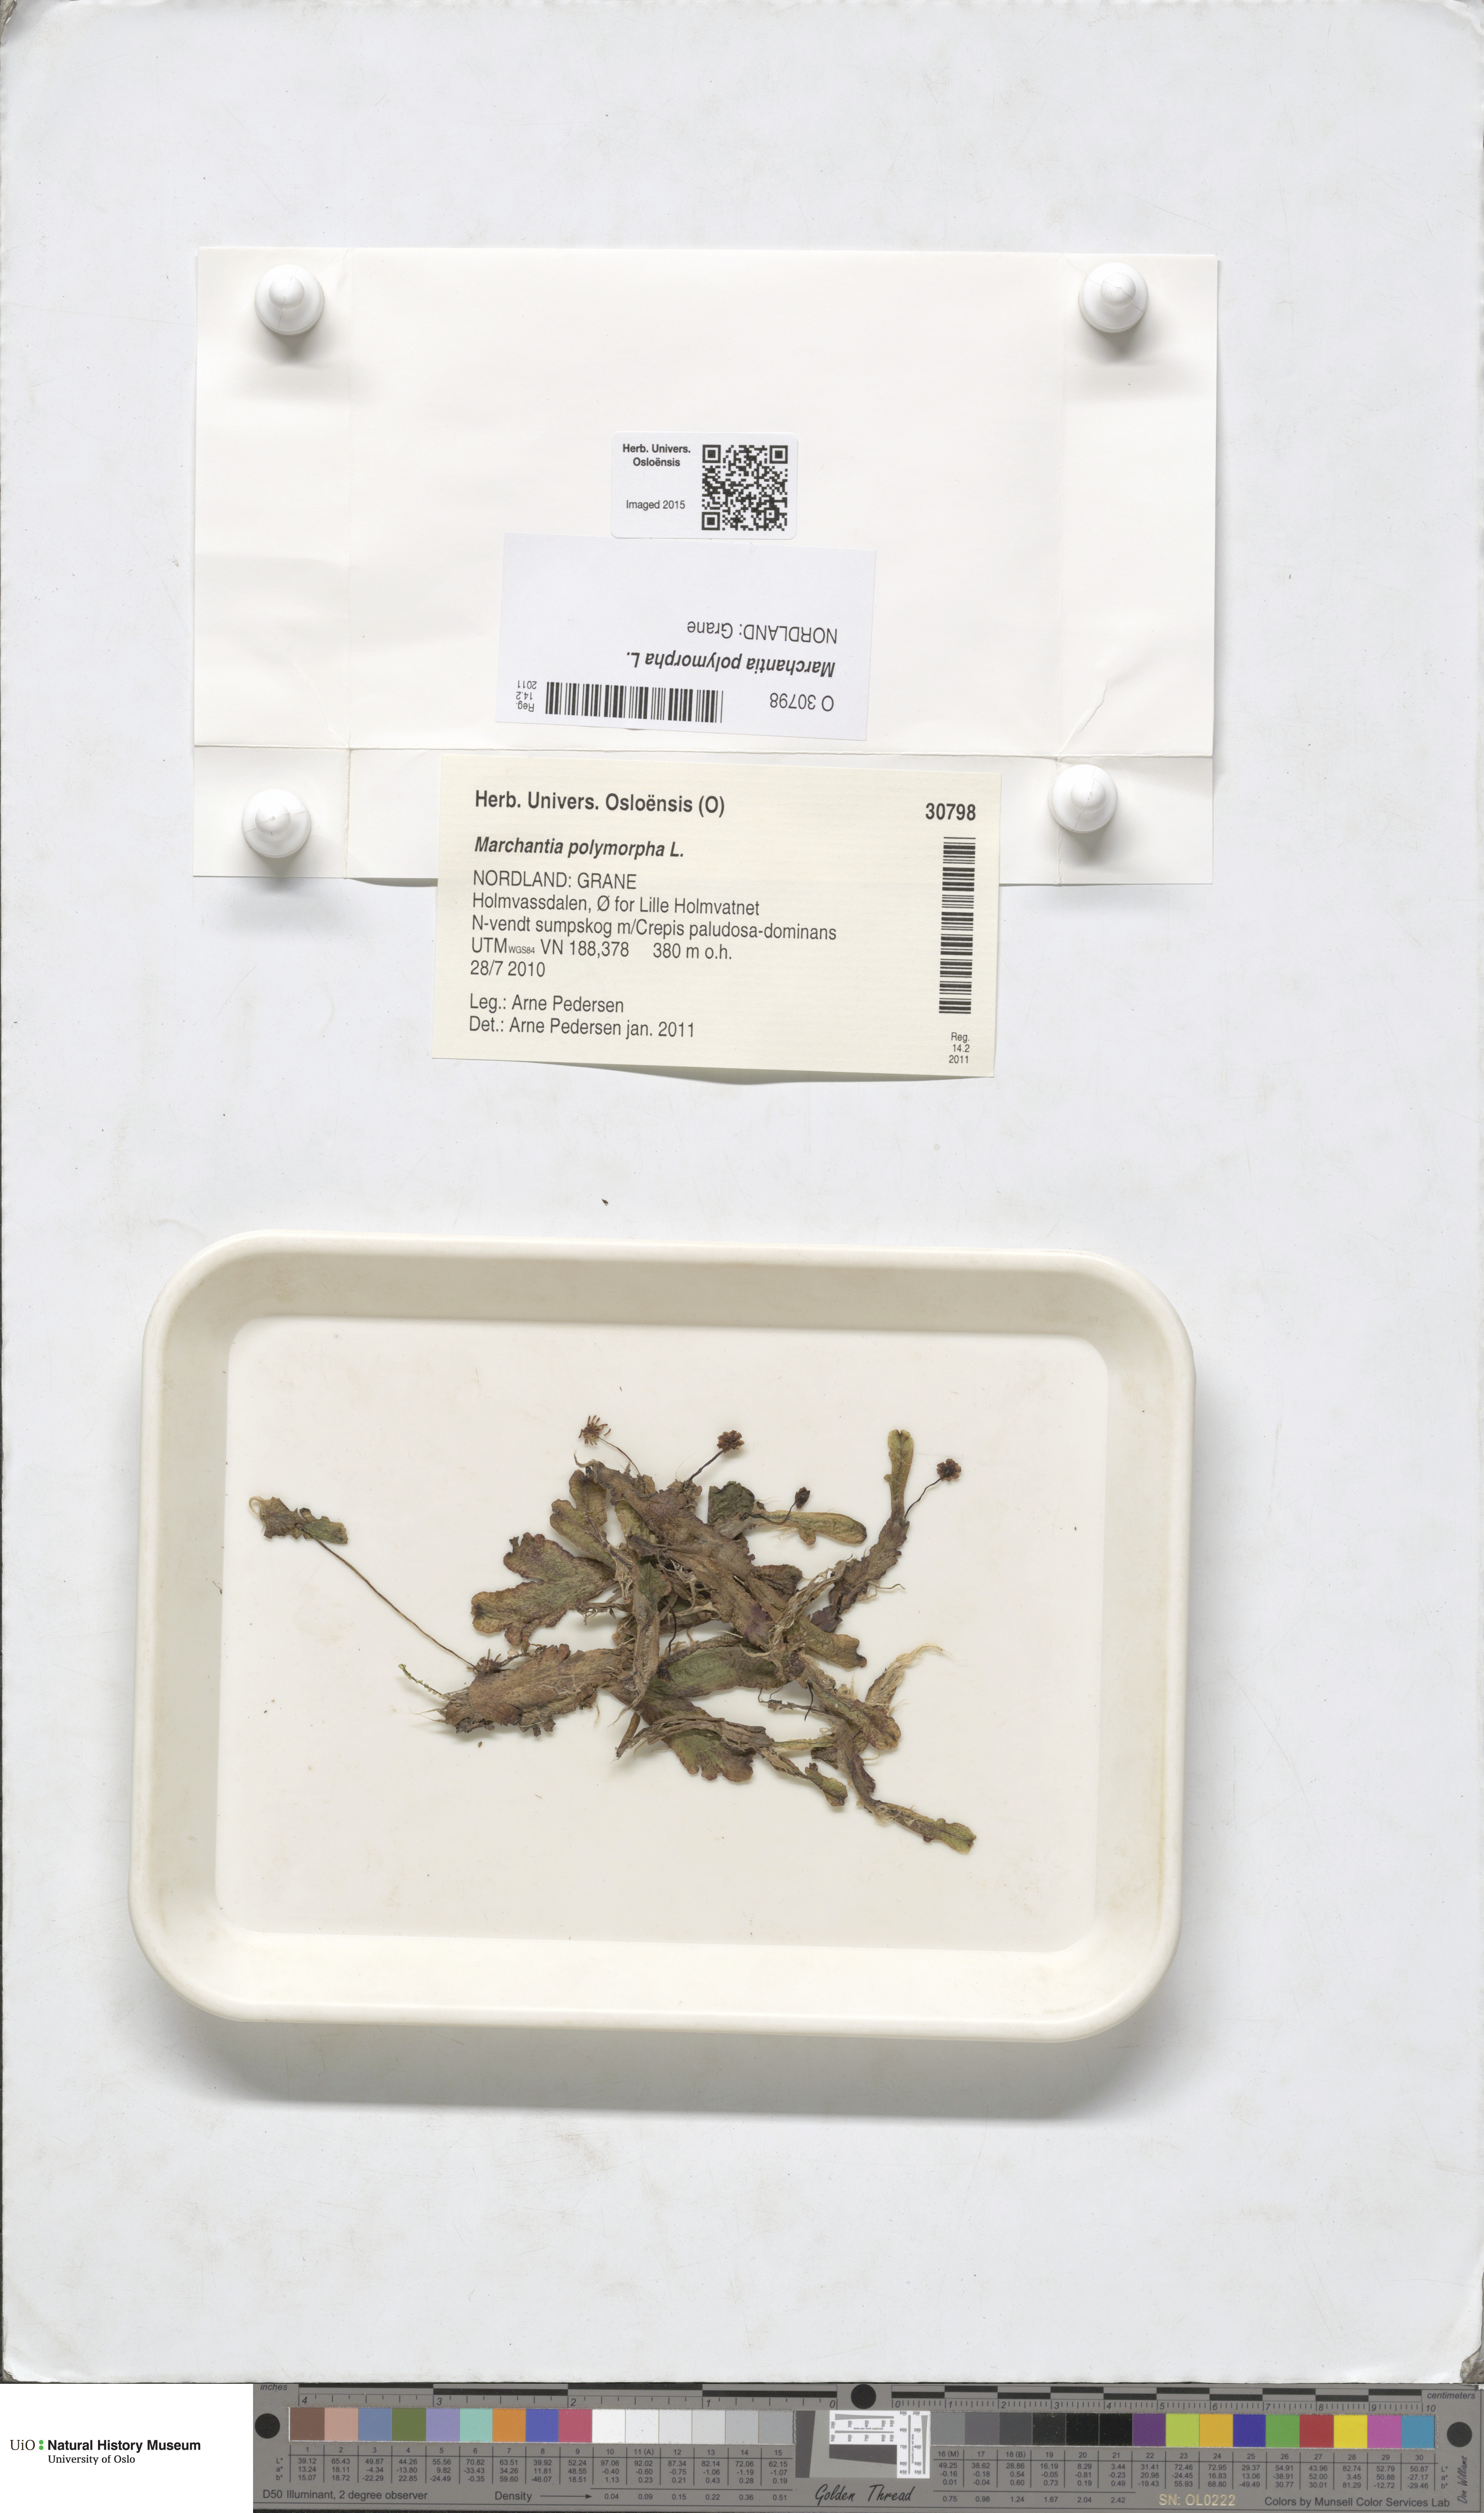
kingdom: Plantae
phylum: Marchantiophyta
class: Marchantiopsida
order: Marchantiales
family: Marchantiaceae
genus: Marchantia
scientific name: Marchantia polymorpha
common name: Common liverwort
